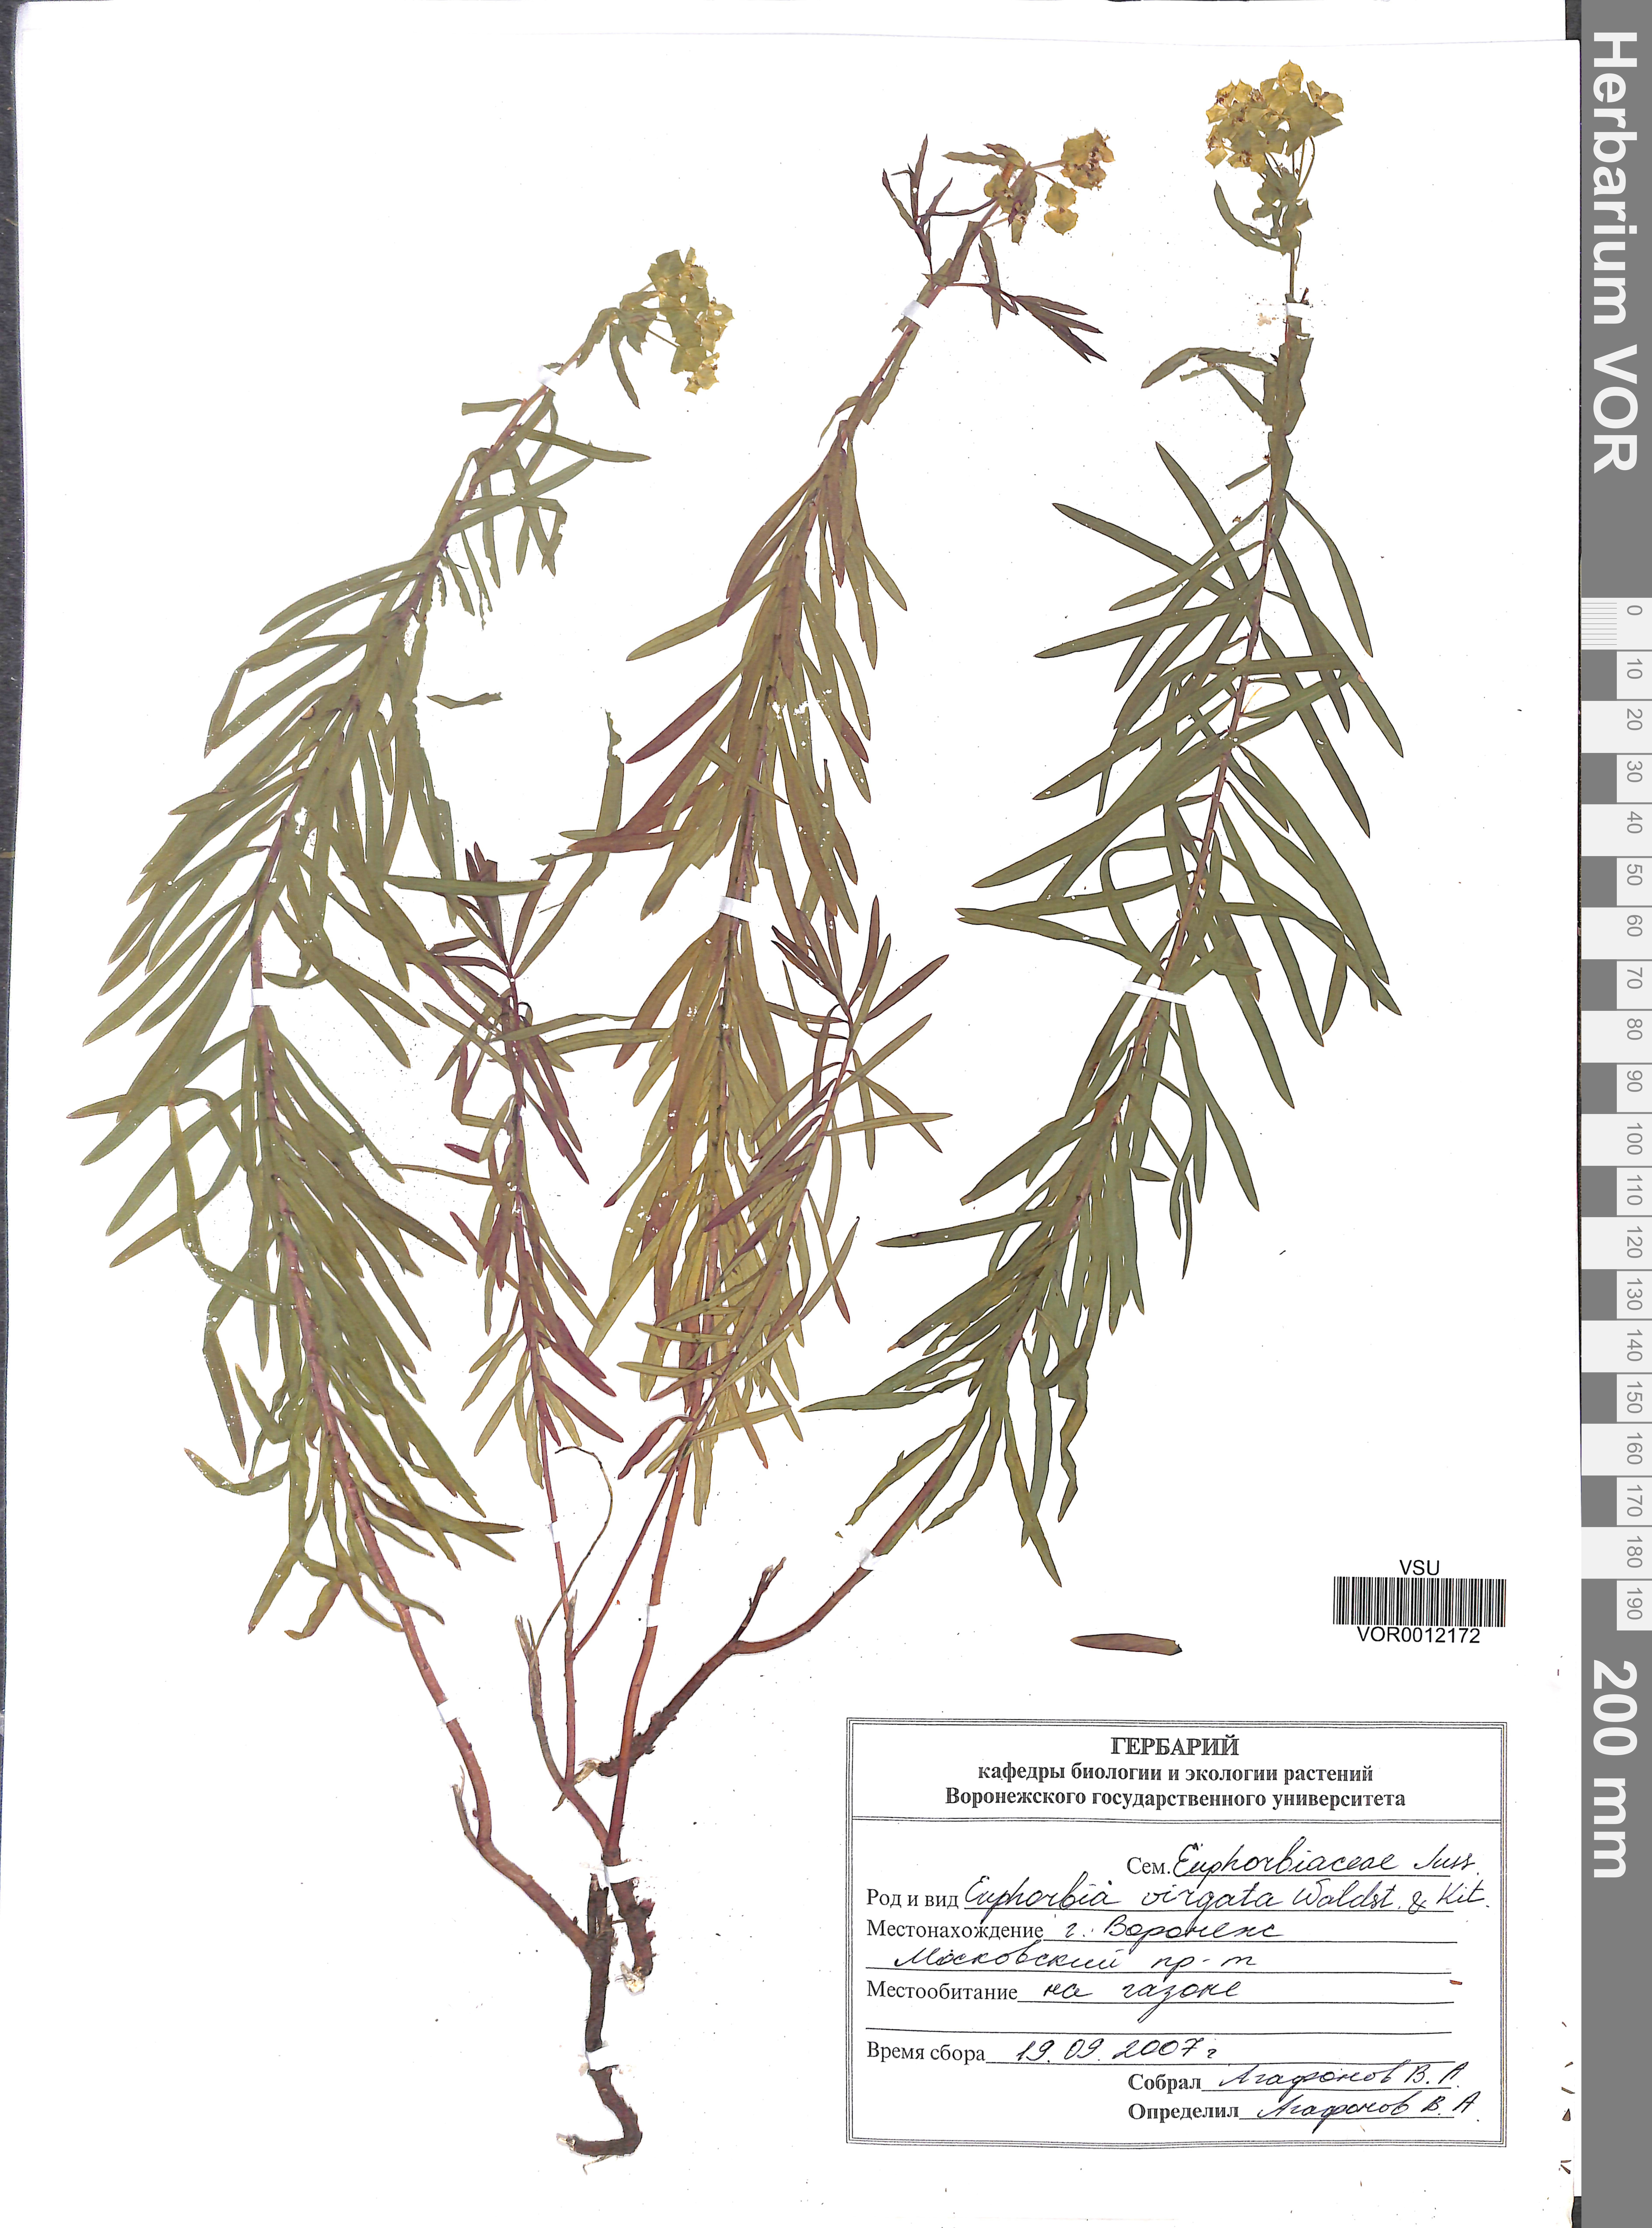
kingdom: Plantae
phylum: Tracheophyta
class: Magnoliopsida
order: Malpighiales
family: Euphorbiaceae
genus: Euphorbia
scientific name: Euphorbia virgata
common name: Leafy spurge
